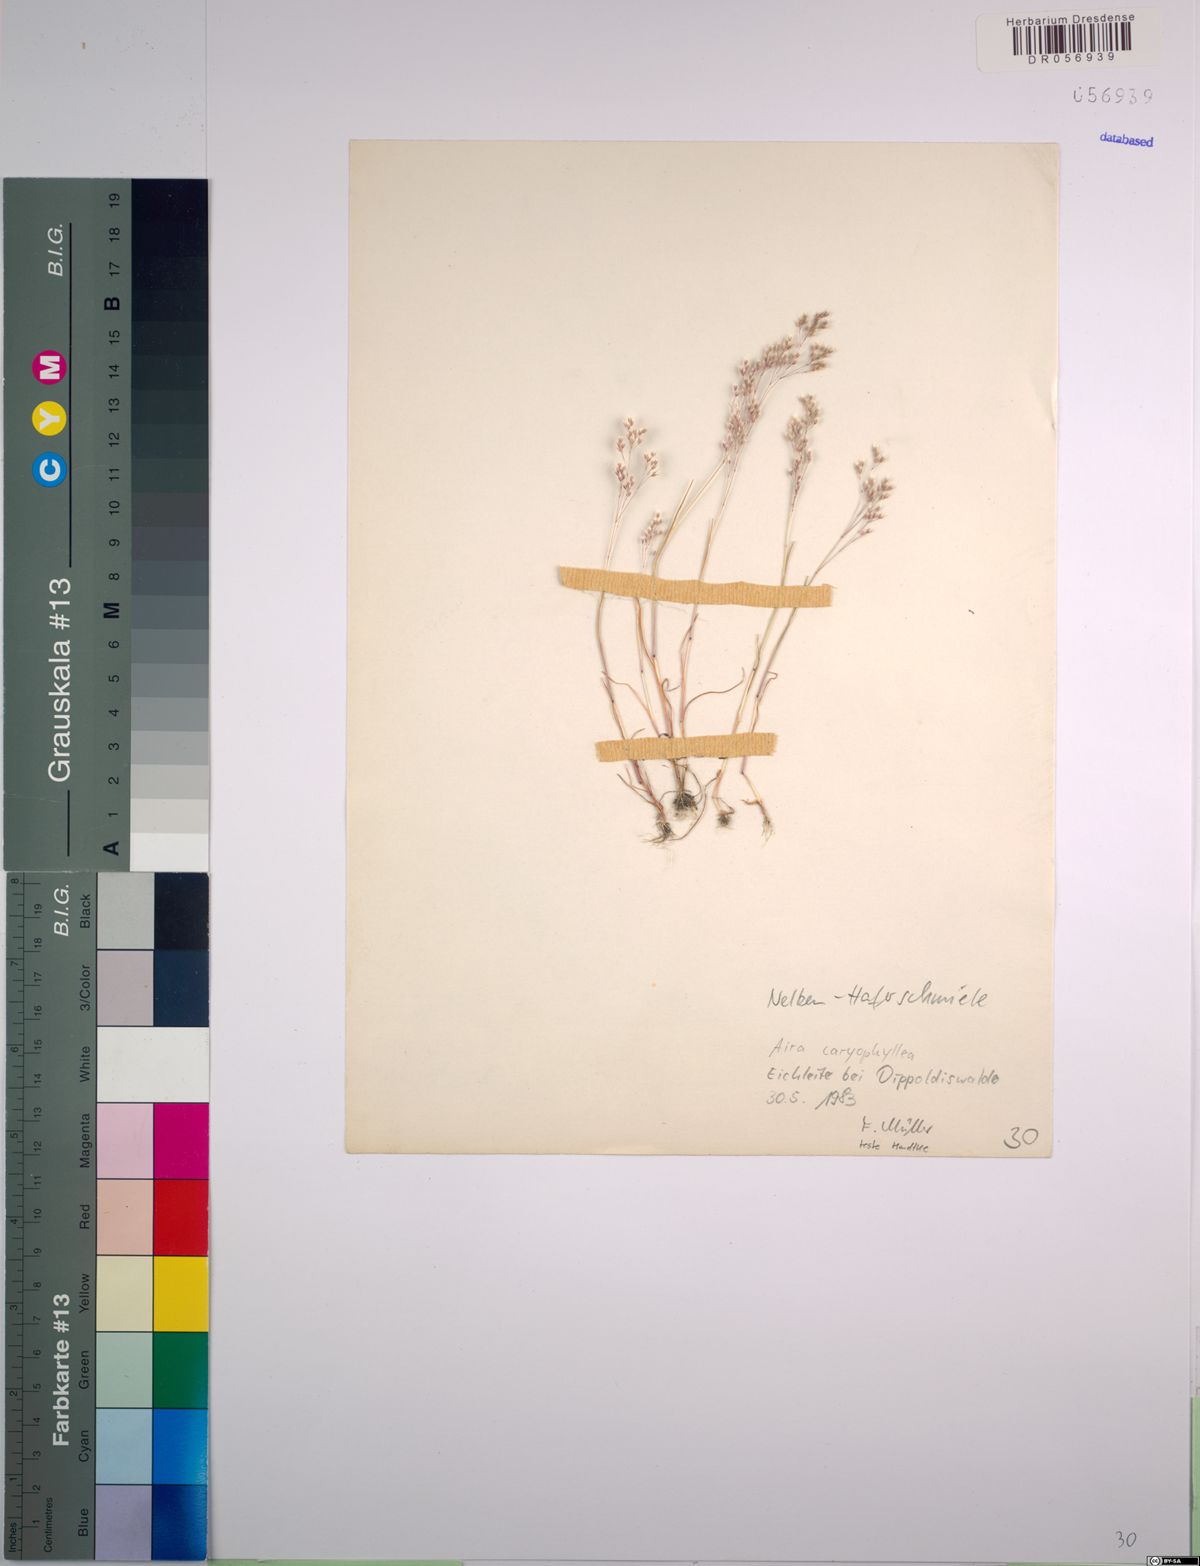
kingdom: Plantae
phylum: Tracheophyta
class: Liliopsida
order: Poales
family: Poaceae
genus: Aira
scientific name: Aira caryophyllea
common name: Silver hairgrass
